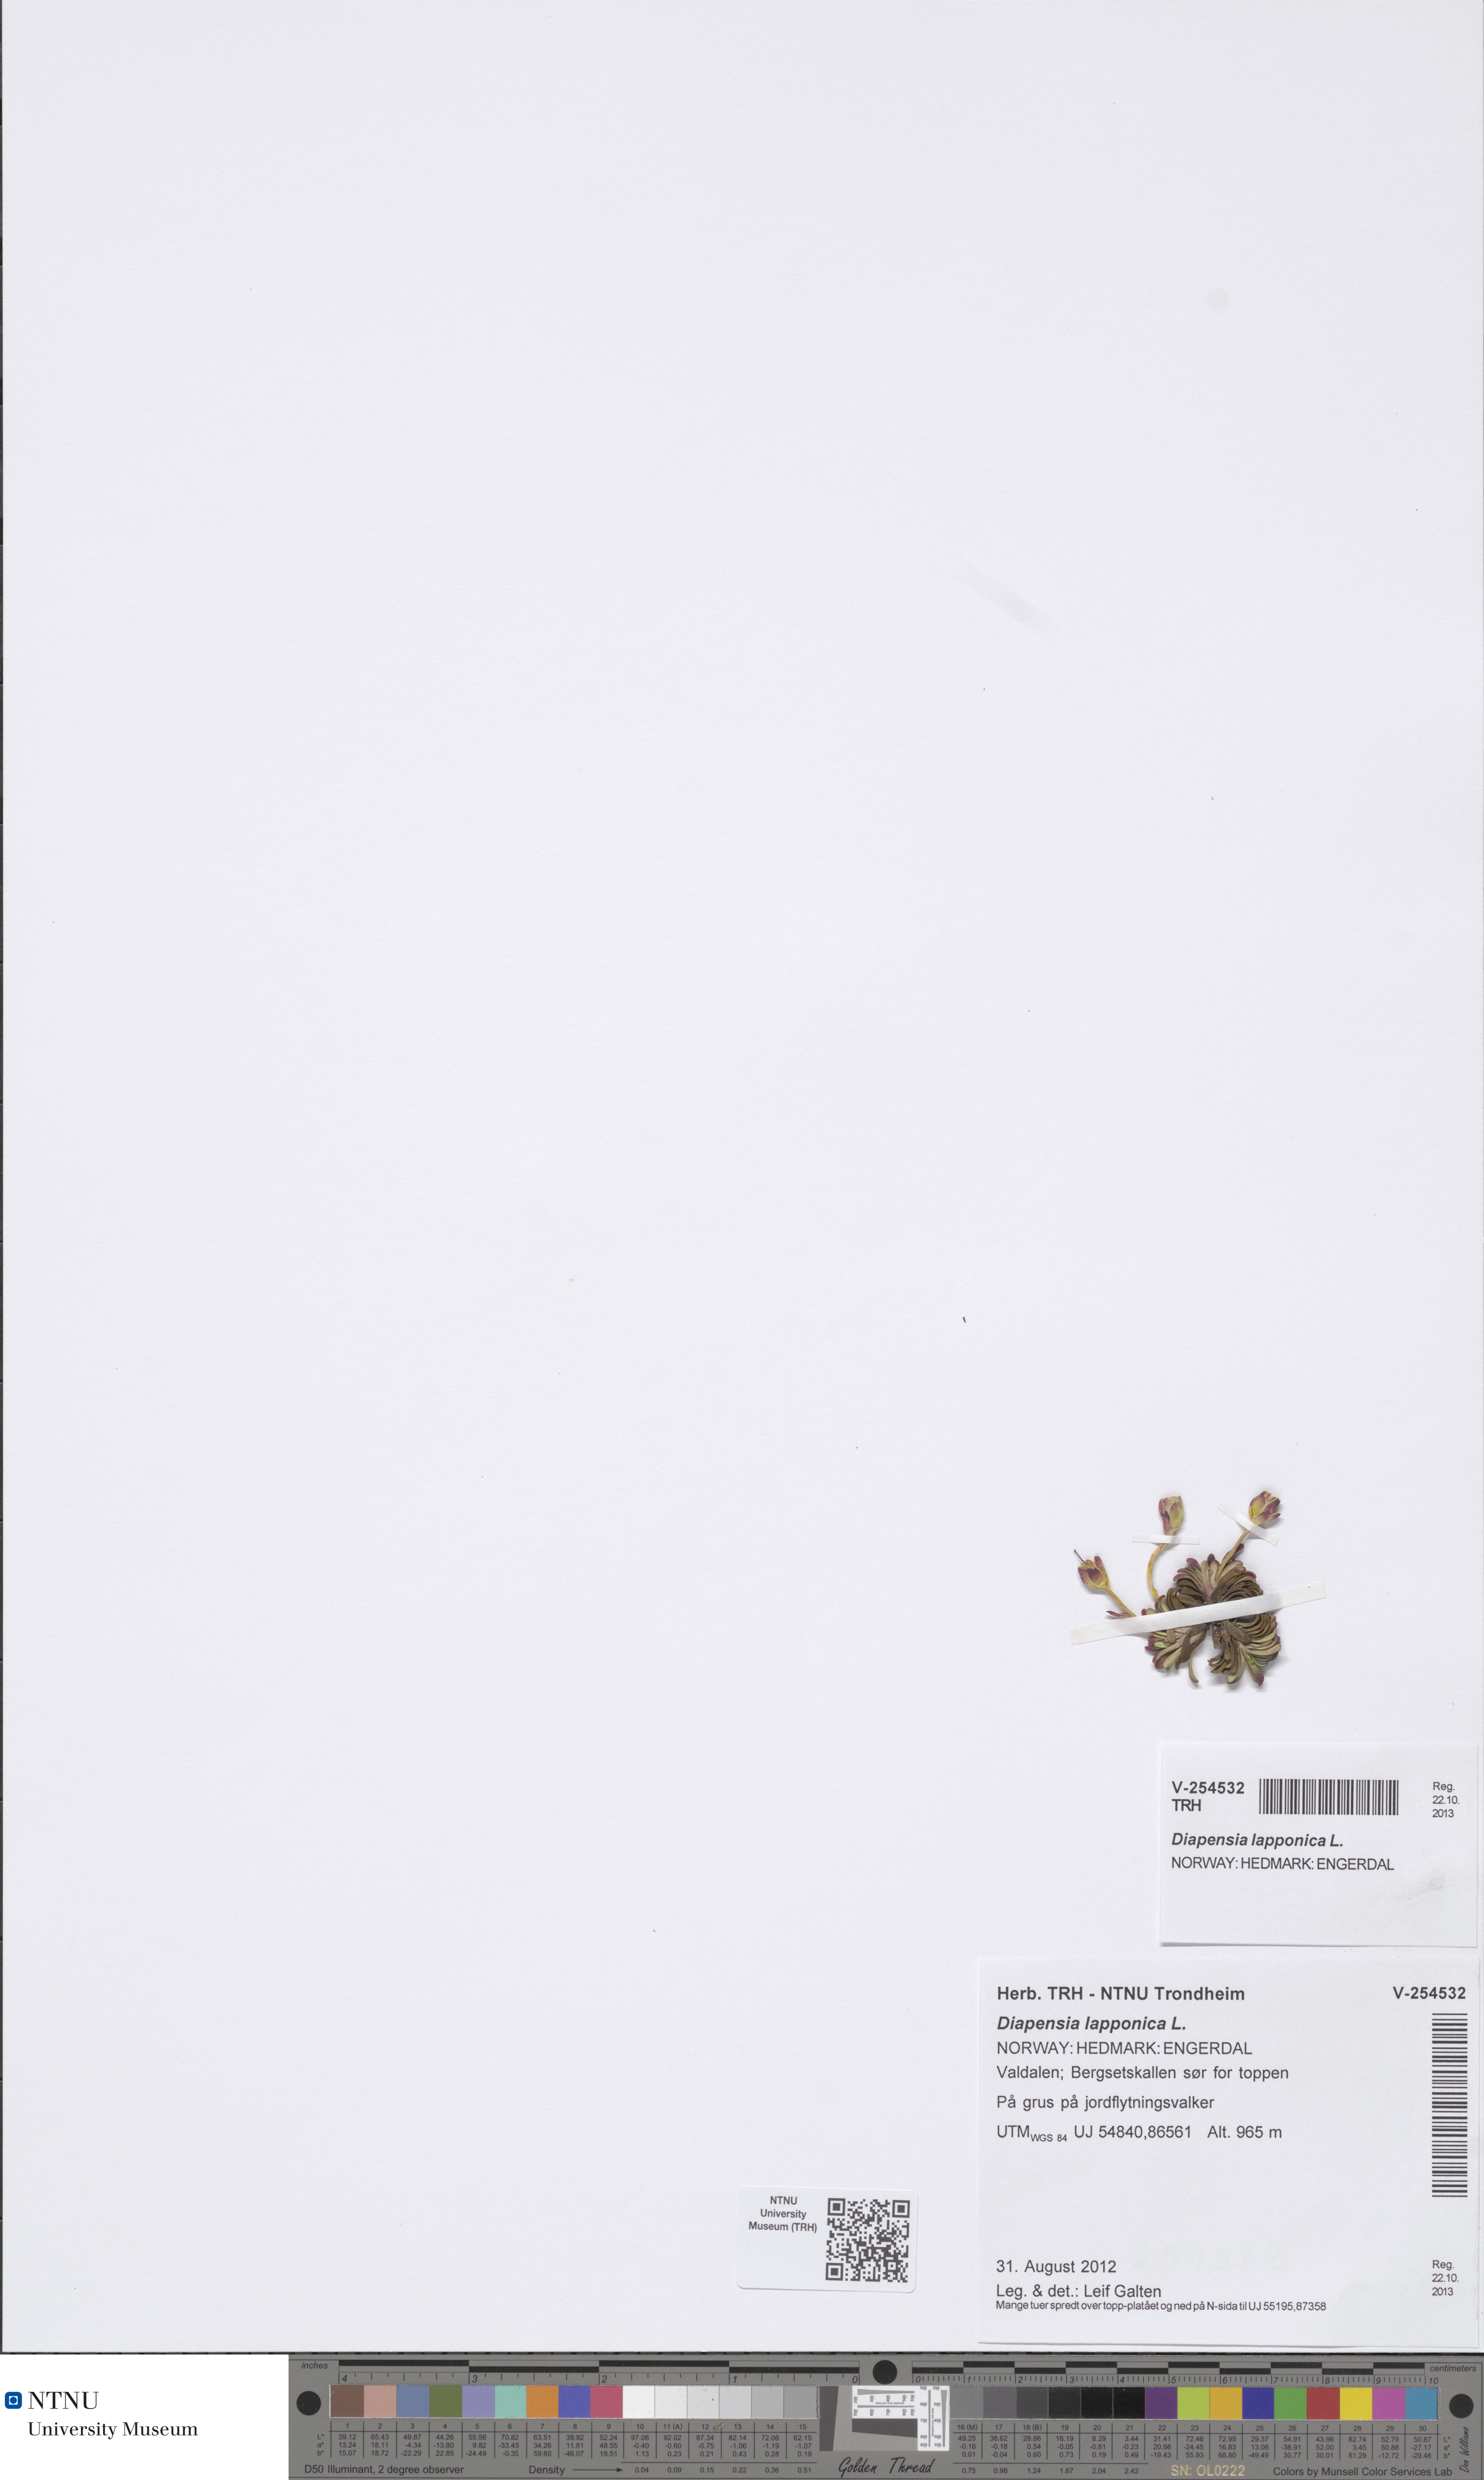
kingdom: Plantae
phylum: Tracheophyta
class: Magnoliopsida
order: Ericales
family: Diapensiaceae
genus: Diapensia
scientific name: Diapensia lapponica
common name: Diapensia
